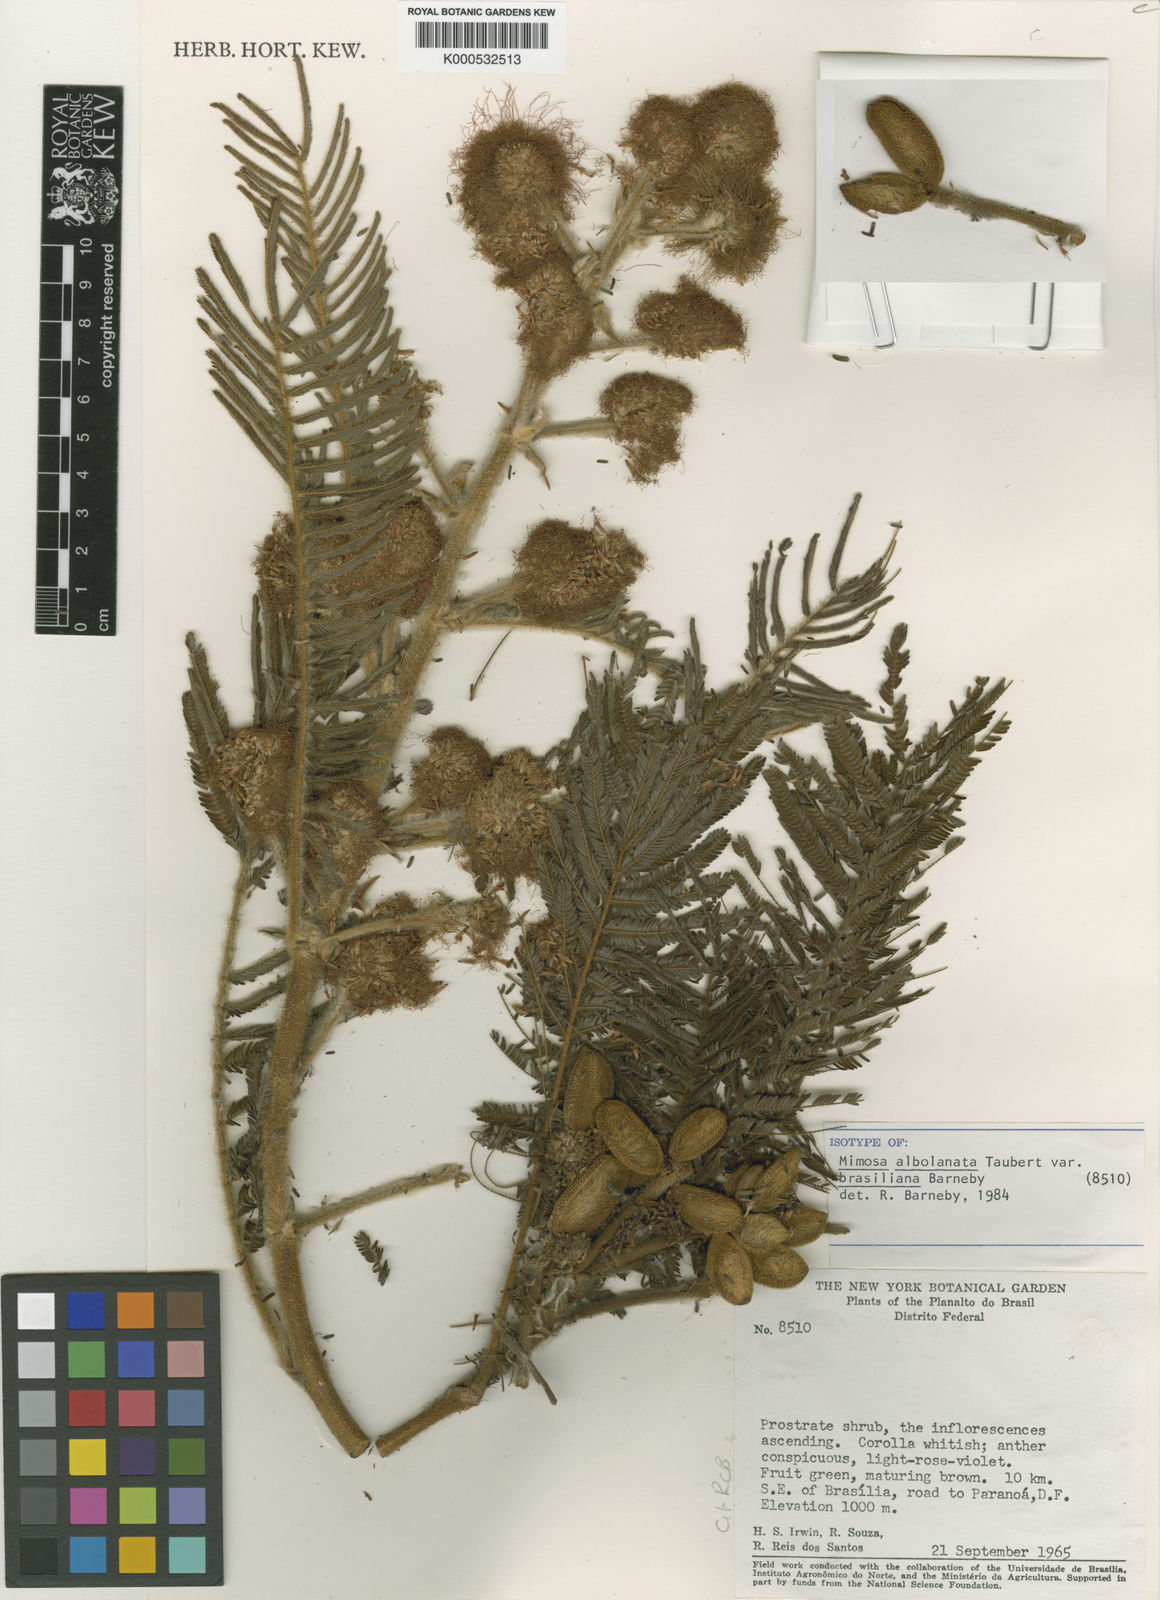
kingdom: Plantae
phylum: Tracheophyta
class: Magnoliopsida
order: Fabales
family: Fabaceae
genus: Mimosa
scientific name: Mimosa albolanata
